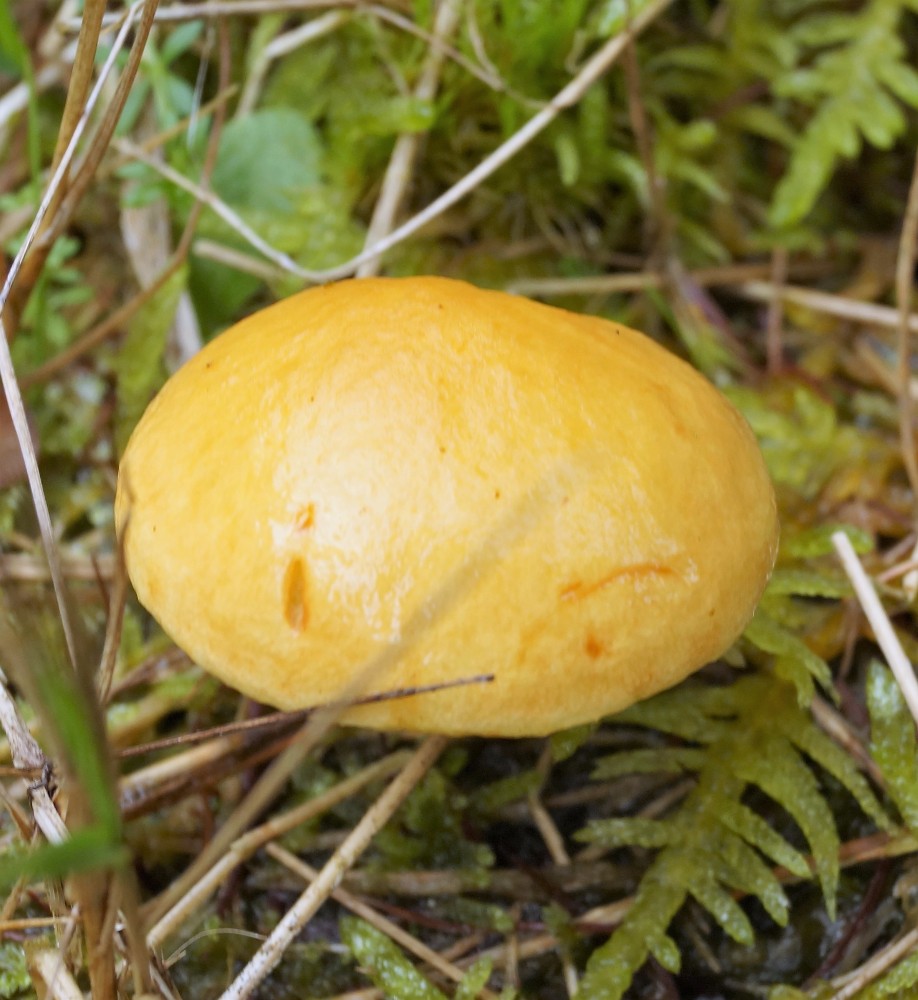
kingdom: Fungi
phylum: Basidiomycota
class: Agaricomycetes
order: Boletales
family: Suillaceae
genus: Suillus
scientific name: Suillus grevillei
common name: lærke-slimrørhat
